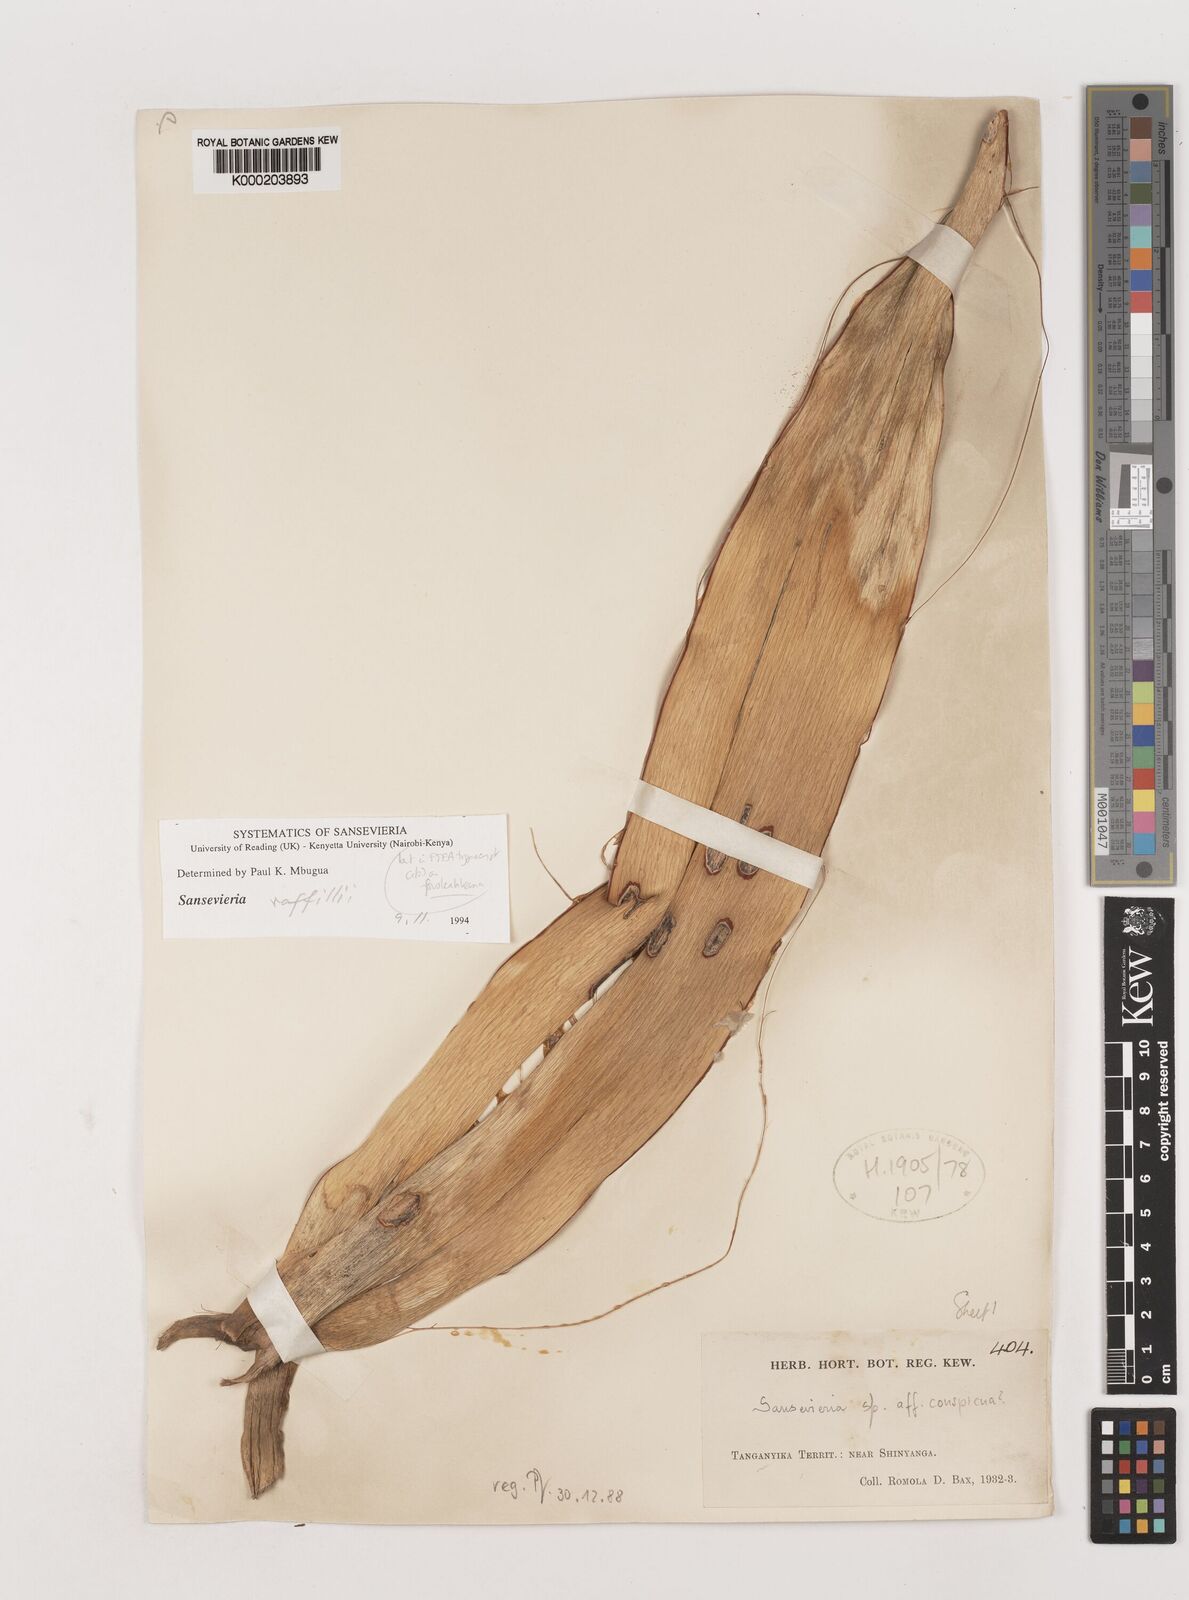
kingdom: Plantae
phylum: Tracheophyta
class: Liliopsida
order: Asparagales
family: Asparagaceae
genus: Dracaena
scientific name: Dracaena conspicua
